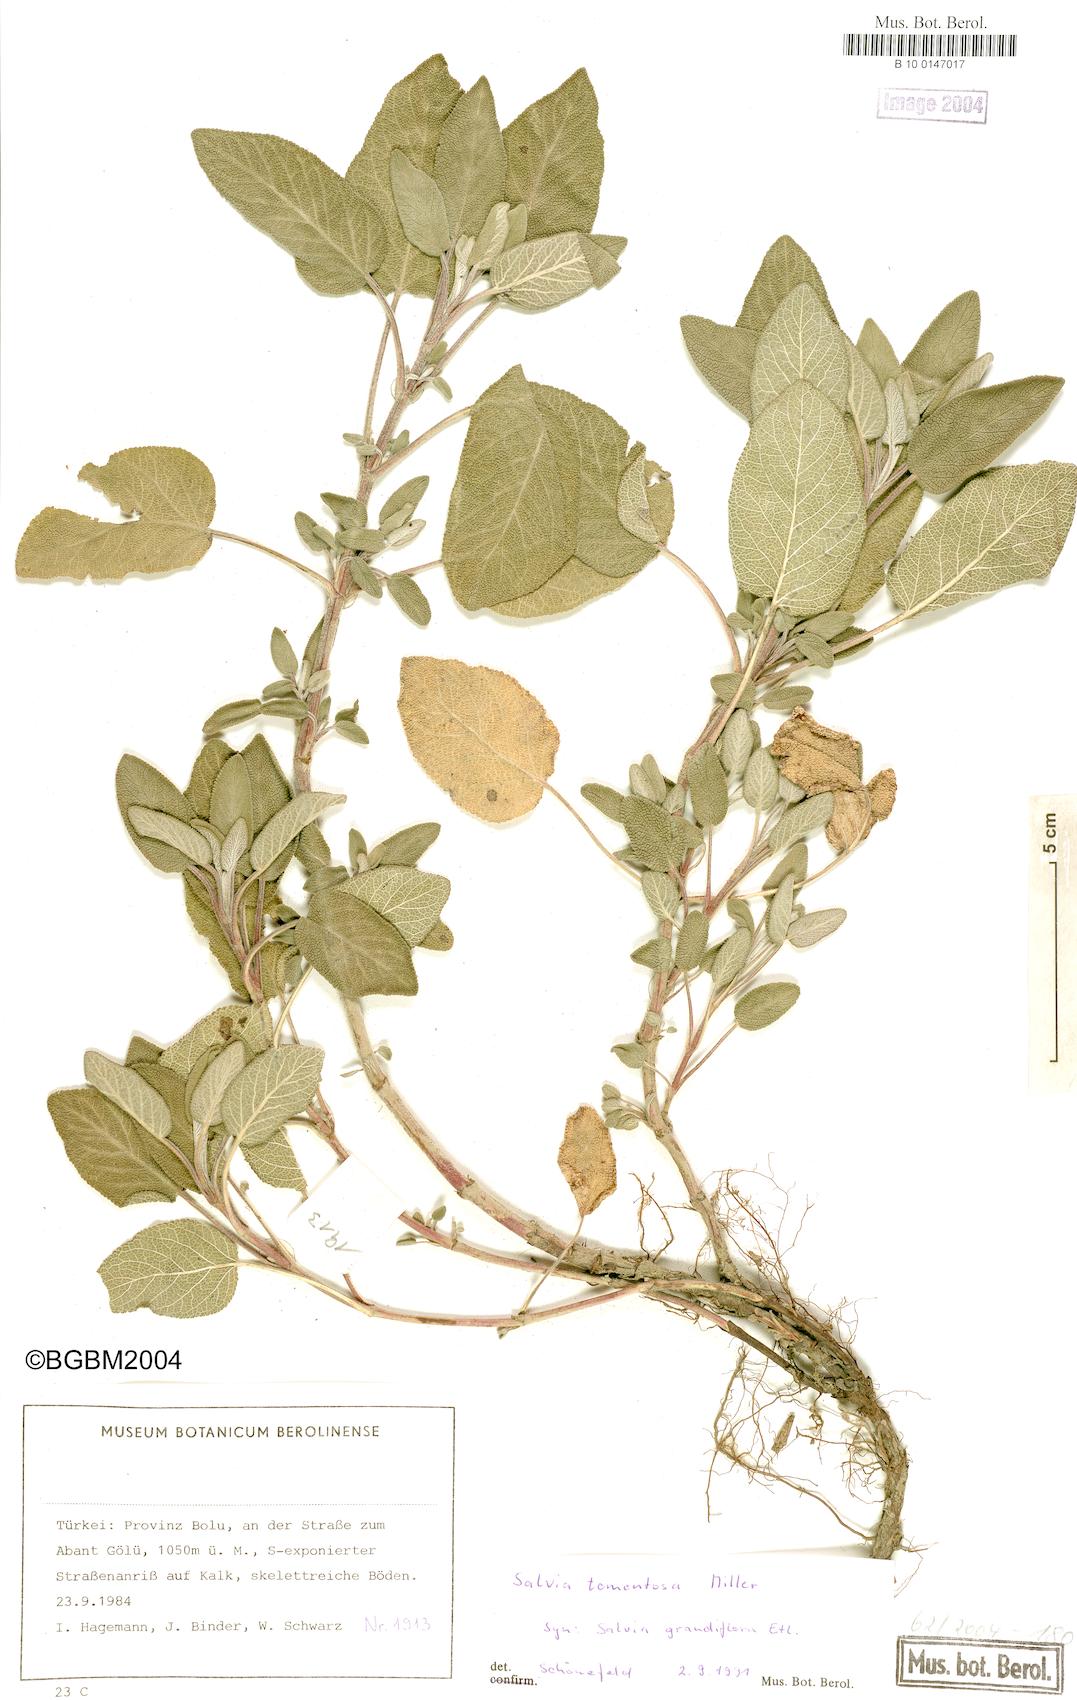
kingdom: Plantae
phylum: Tracheophyta
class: Magnoliopsida
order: Lamiales
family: Lamiaceae
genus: Salvia
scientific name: Salvia tomentosa
